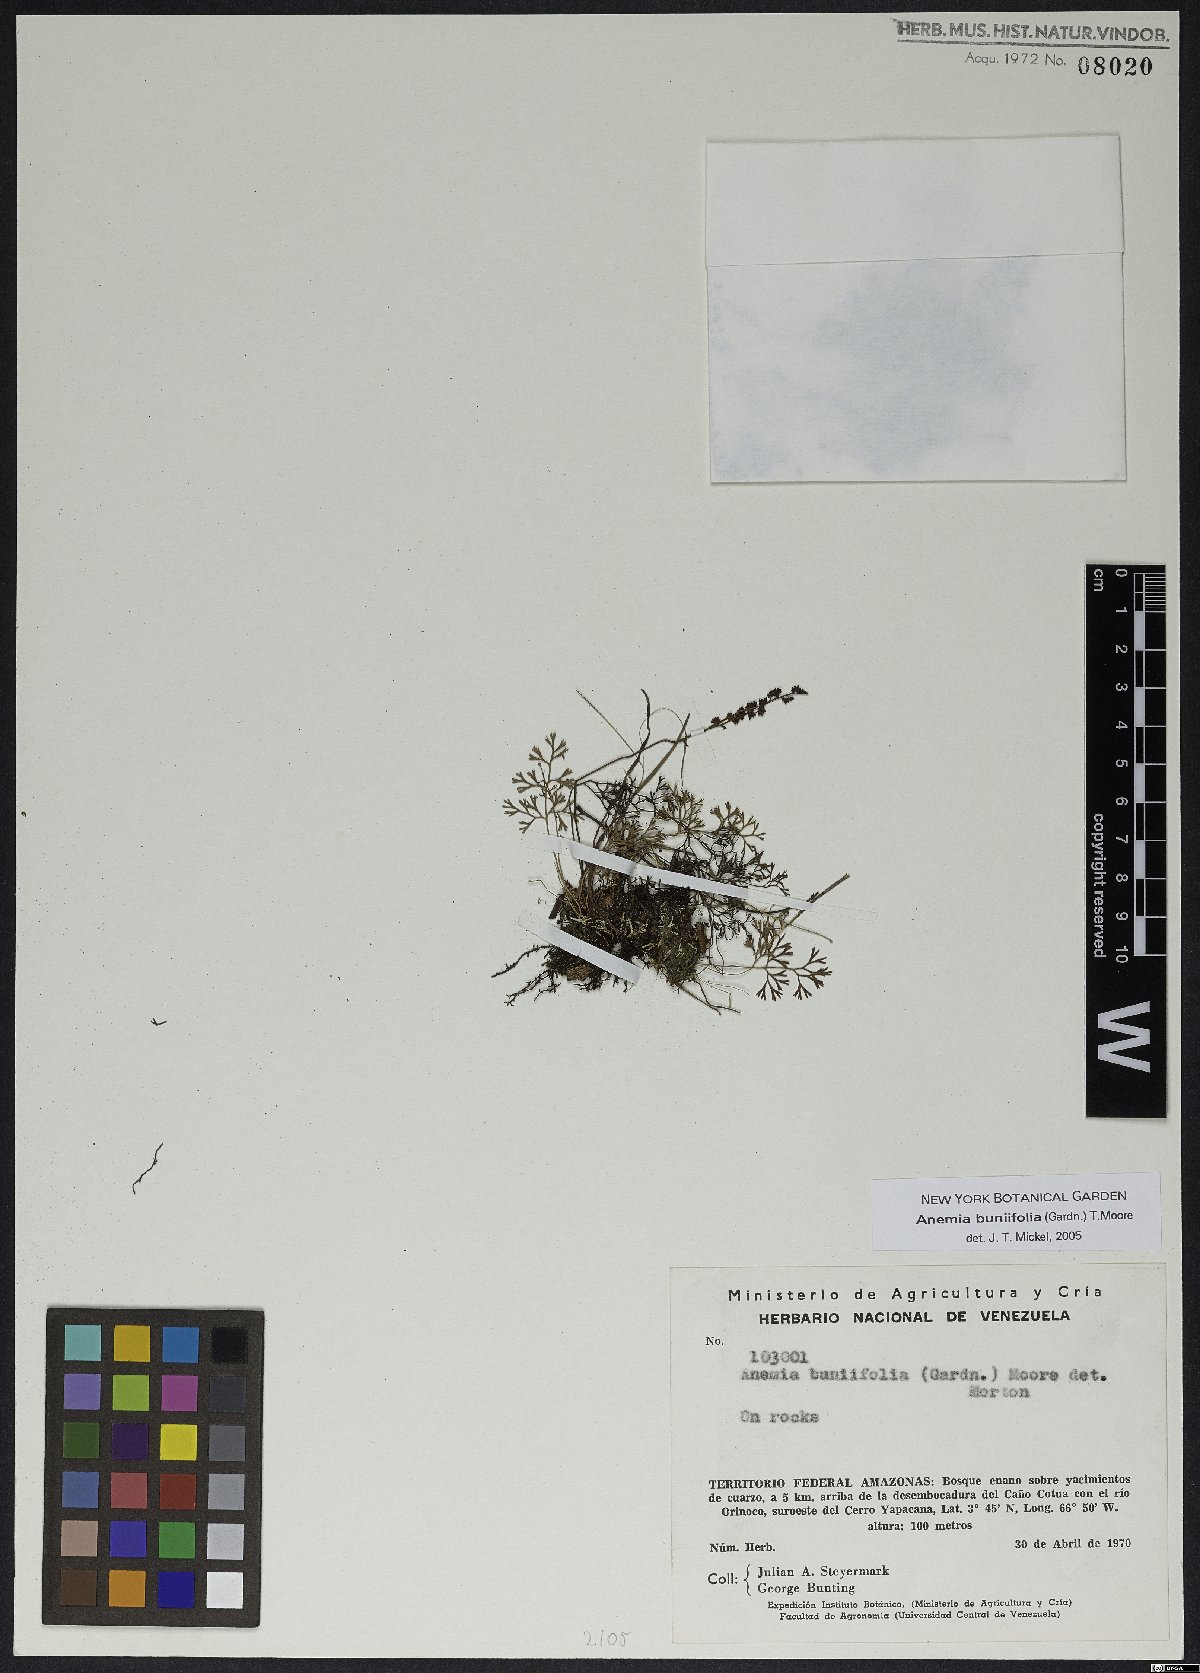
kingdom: Plantae
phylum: Tracheophyta
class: Polypodiopsida
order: Schizaeales
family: Anemiaceae
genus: Anemia
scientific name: Anemia buniifolia
